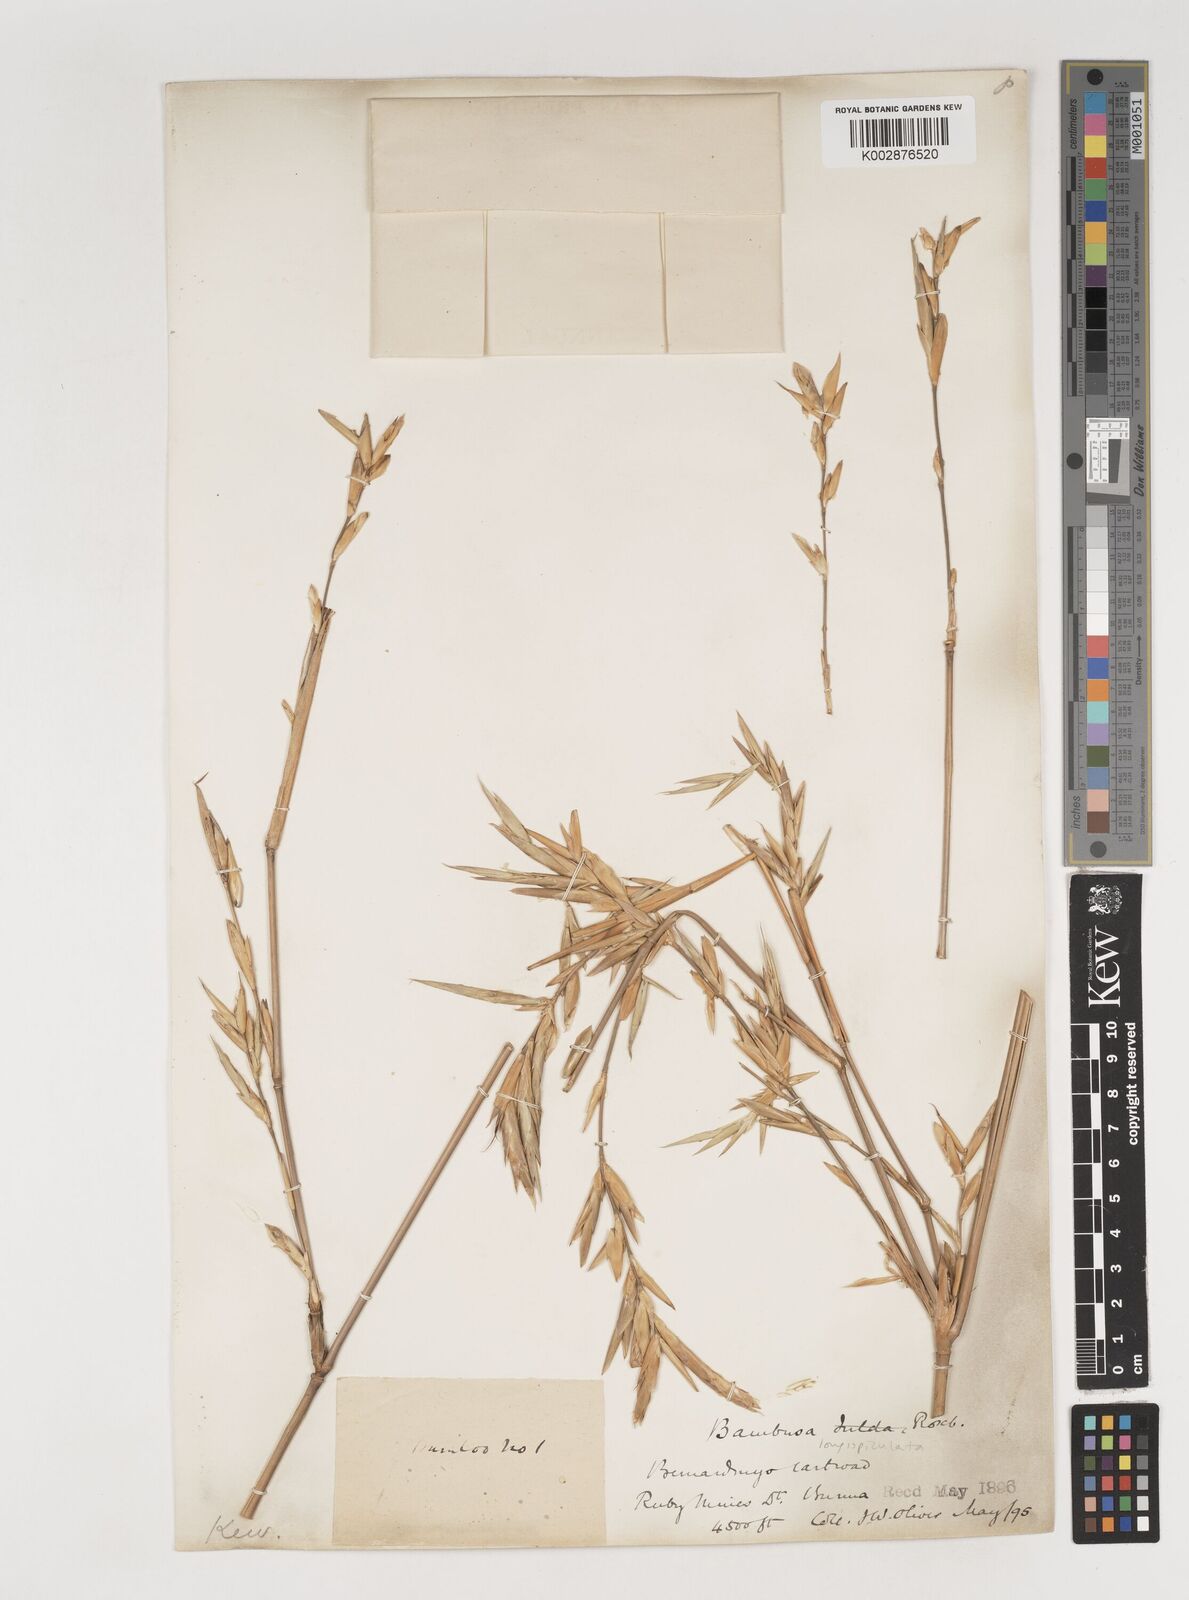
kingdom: Plantae
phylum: Tracheophyta
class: Liliopsida
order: Poales
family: Poaceae
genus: Bambusa
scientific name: Bambusa longispiculata
